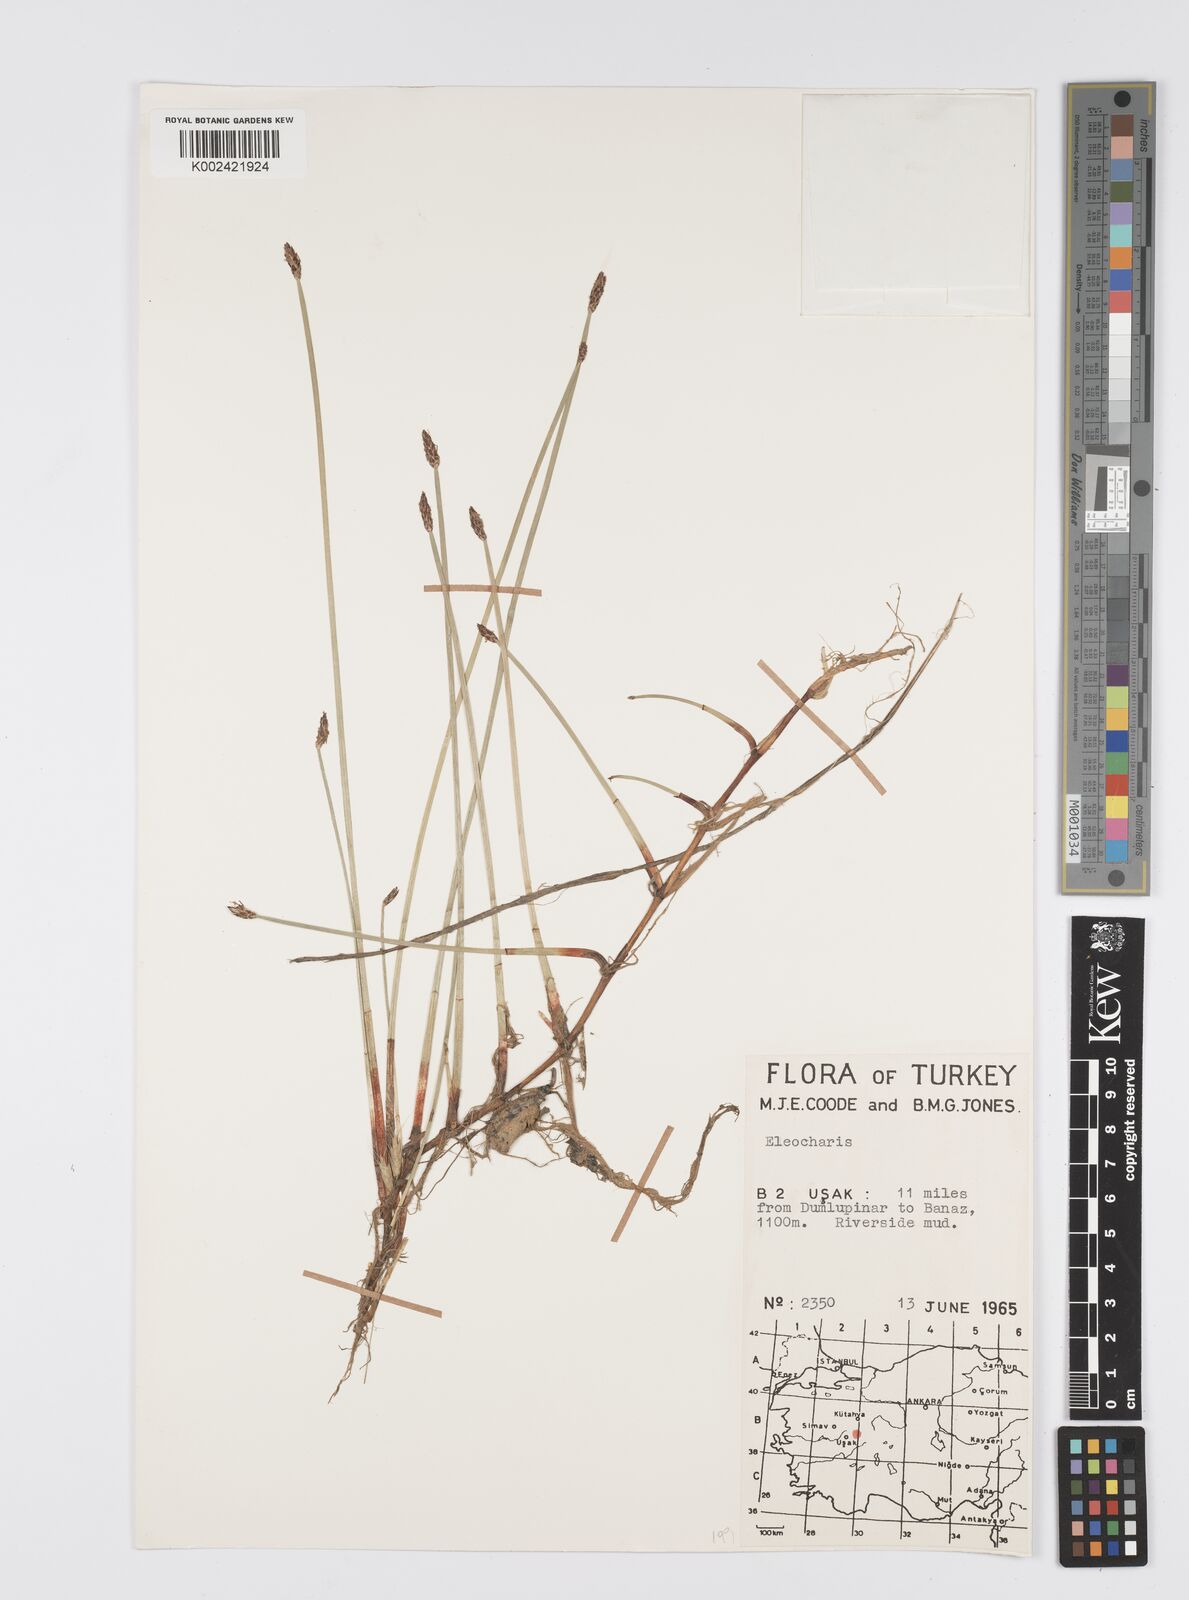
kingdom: Plantae
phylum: Tracheophyta
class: Liliopsida
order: Poales
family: Cyperaceae
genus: Eleocharis
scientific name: Eleocharis
